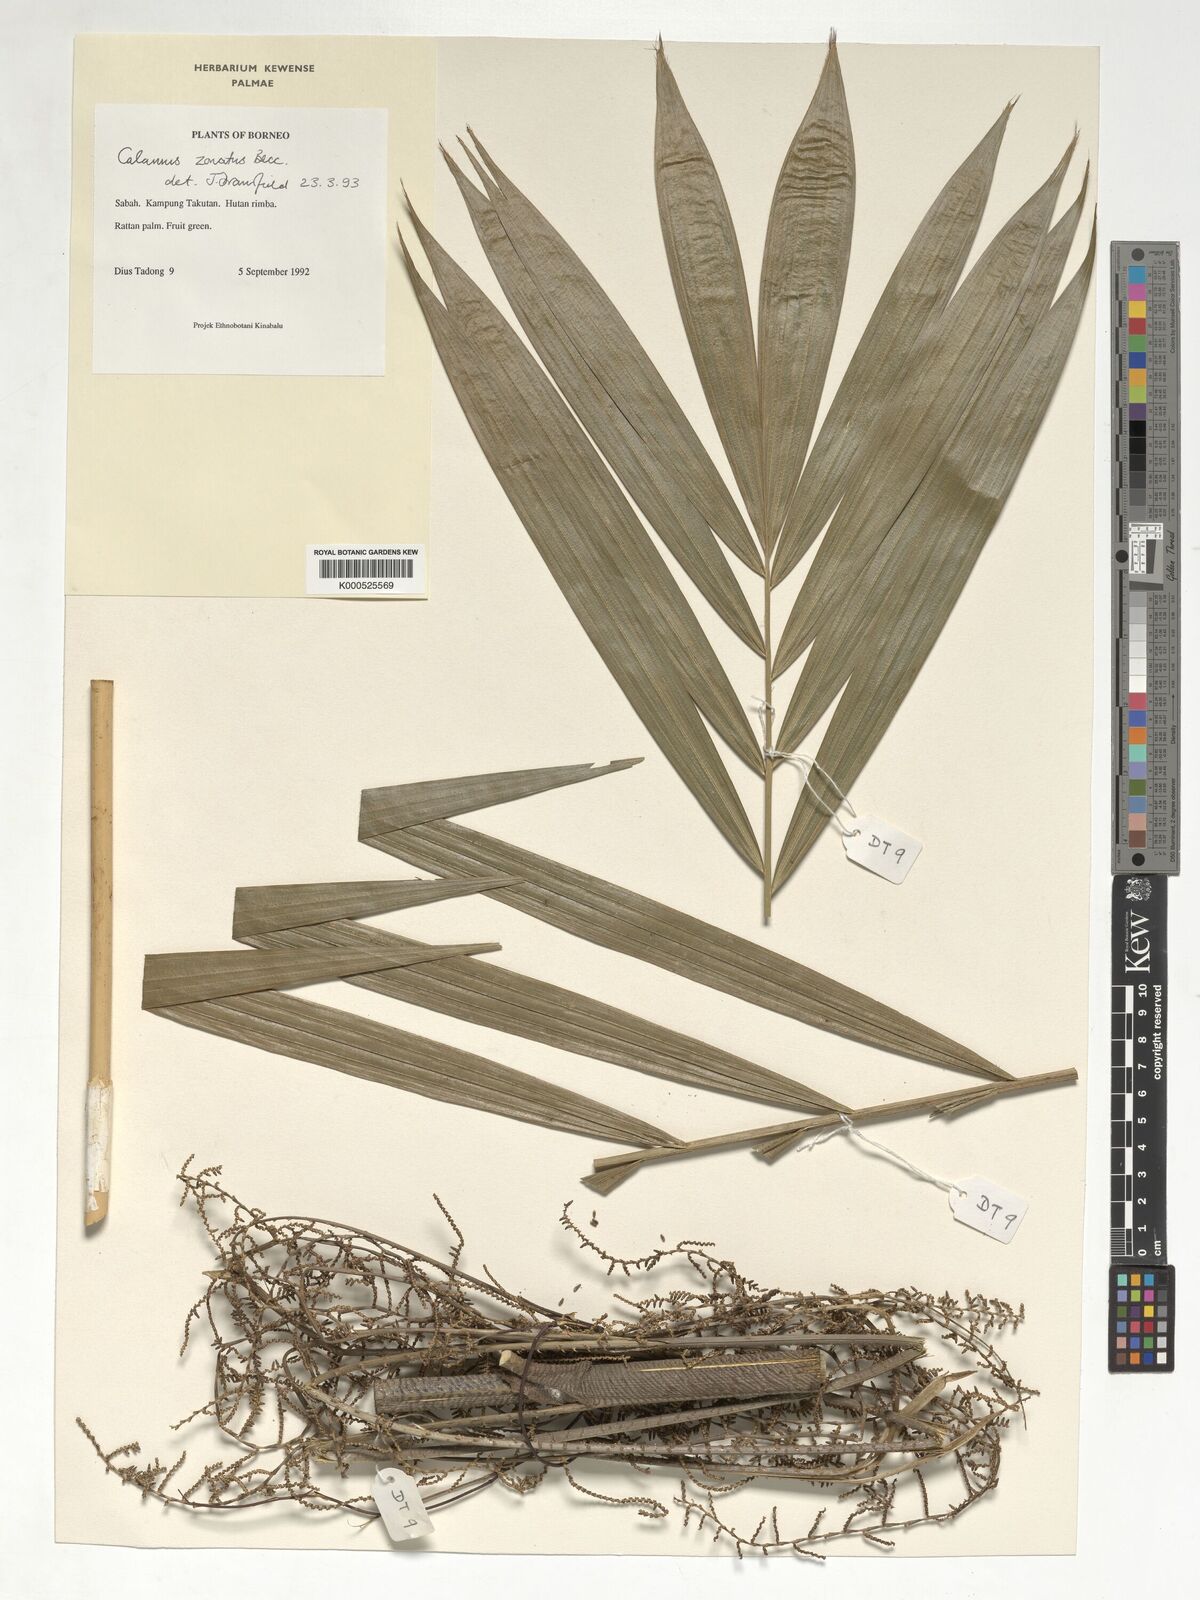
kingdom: Plantae
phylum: Tracheophyta
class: Liliopsida
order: Arecales
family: Arecaceae
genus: Calamus
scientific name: Calamus zonatus
